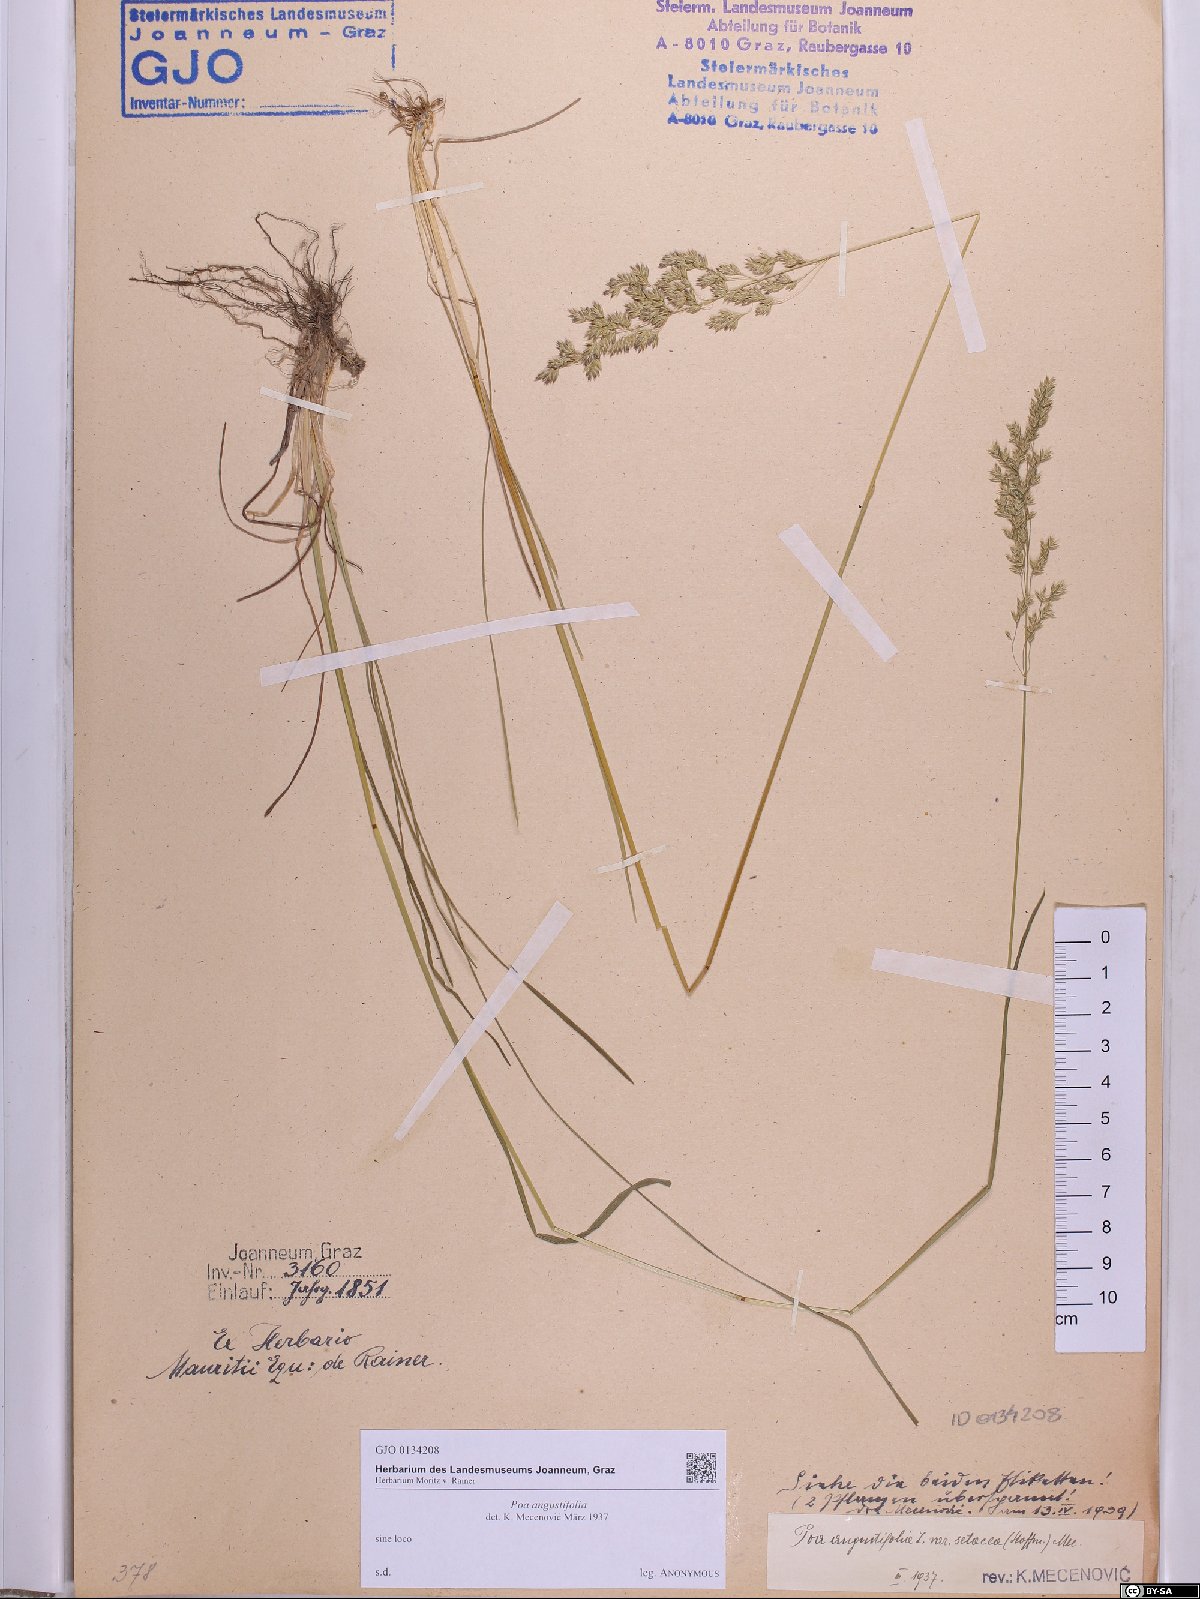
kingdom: Plantae
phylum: Tracheophyta
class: Liliopsida
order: Poales
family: Poaceae
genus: Poa
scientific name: Poa angustifolia
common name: Narrow-leaved meadow-grass
